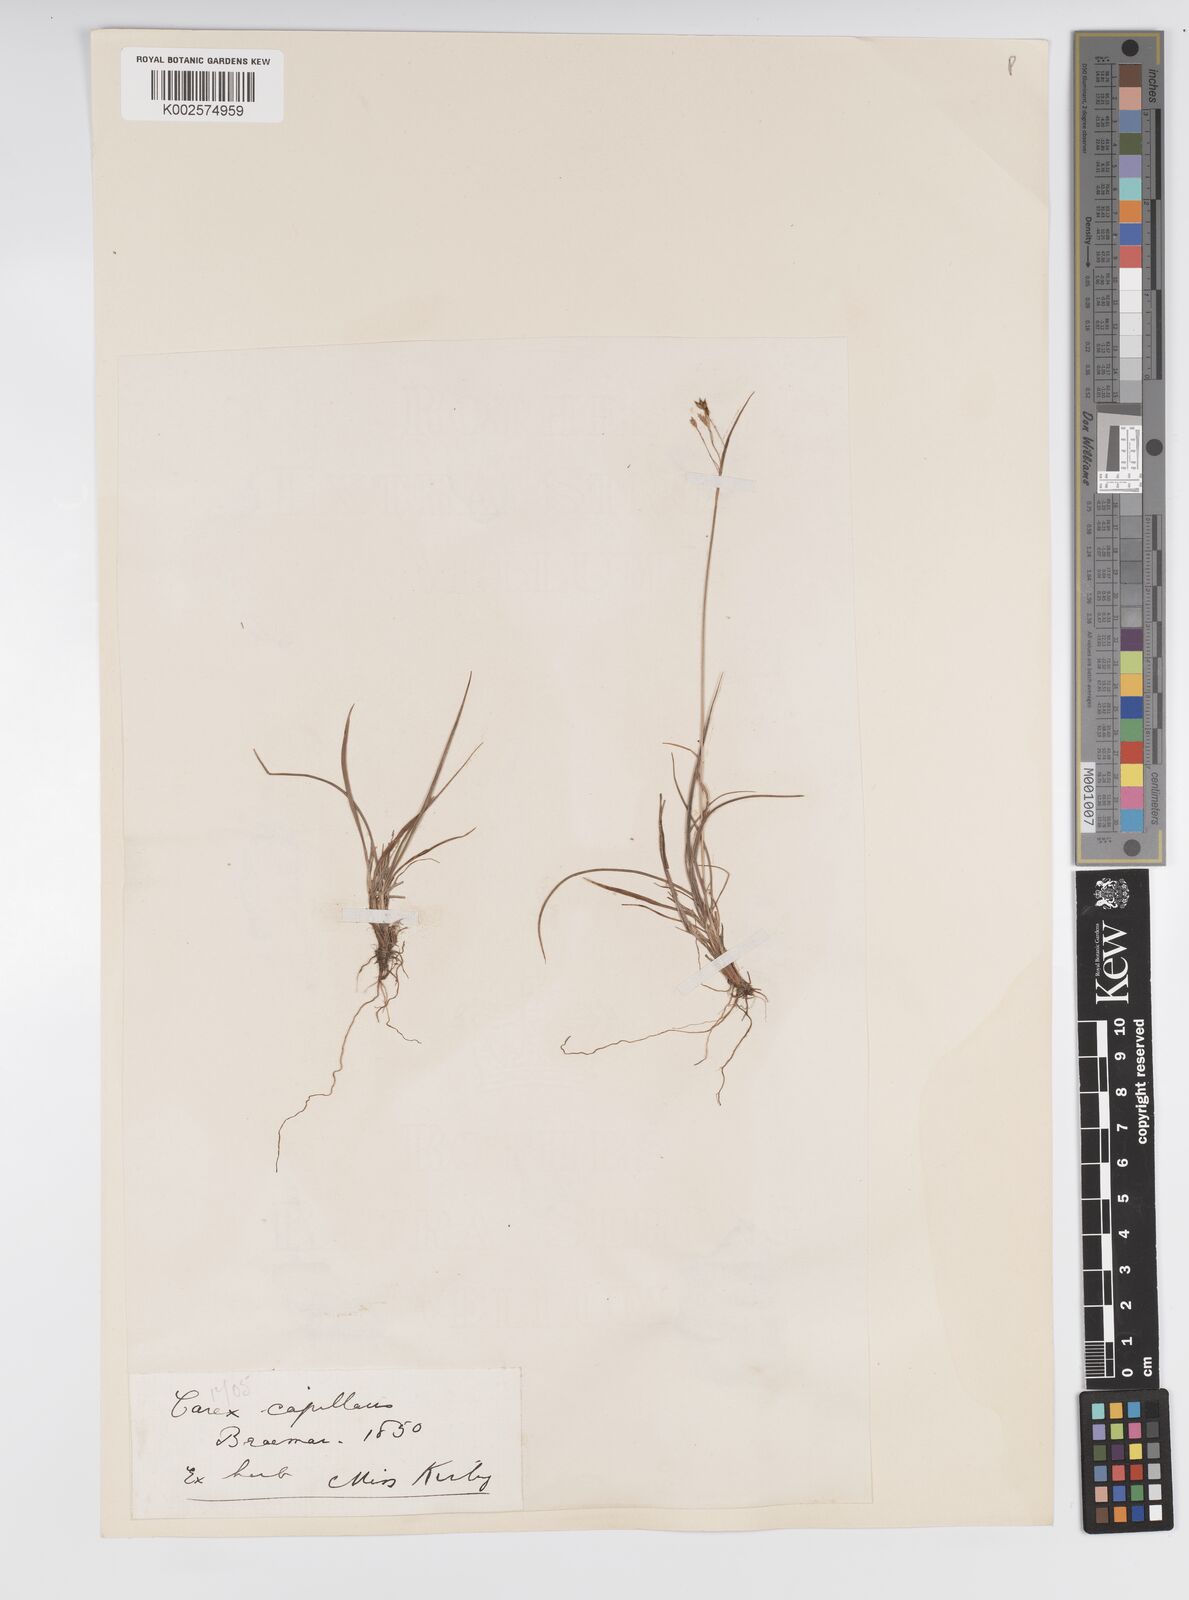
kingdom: Plantae
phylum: Tracheophyta
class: Liliopsida
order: Poales
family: Cyperaceae
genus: Carex
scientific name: Carex capillaris
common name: Hair sedge
